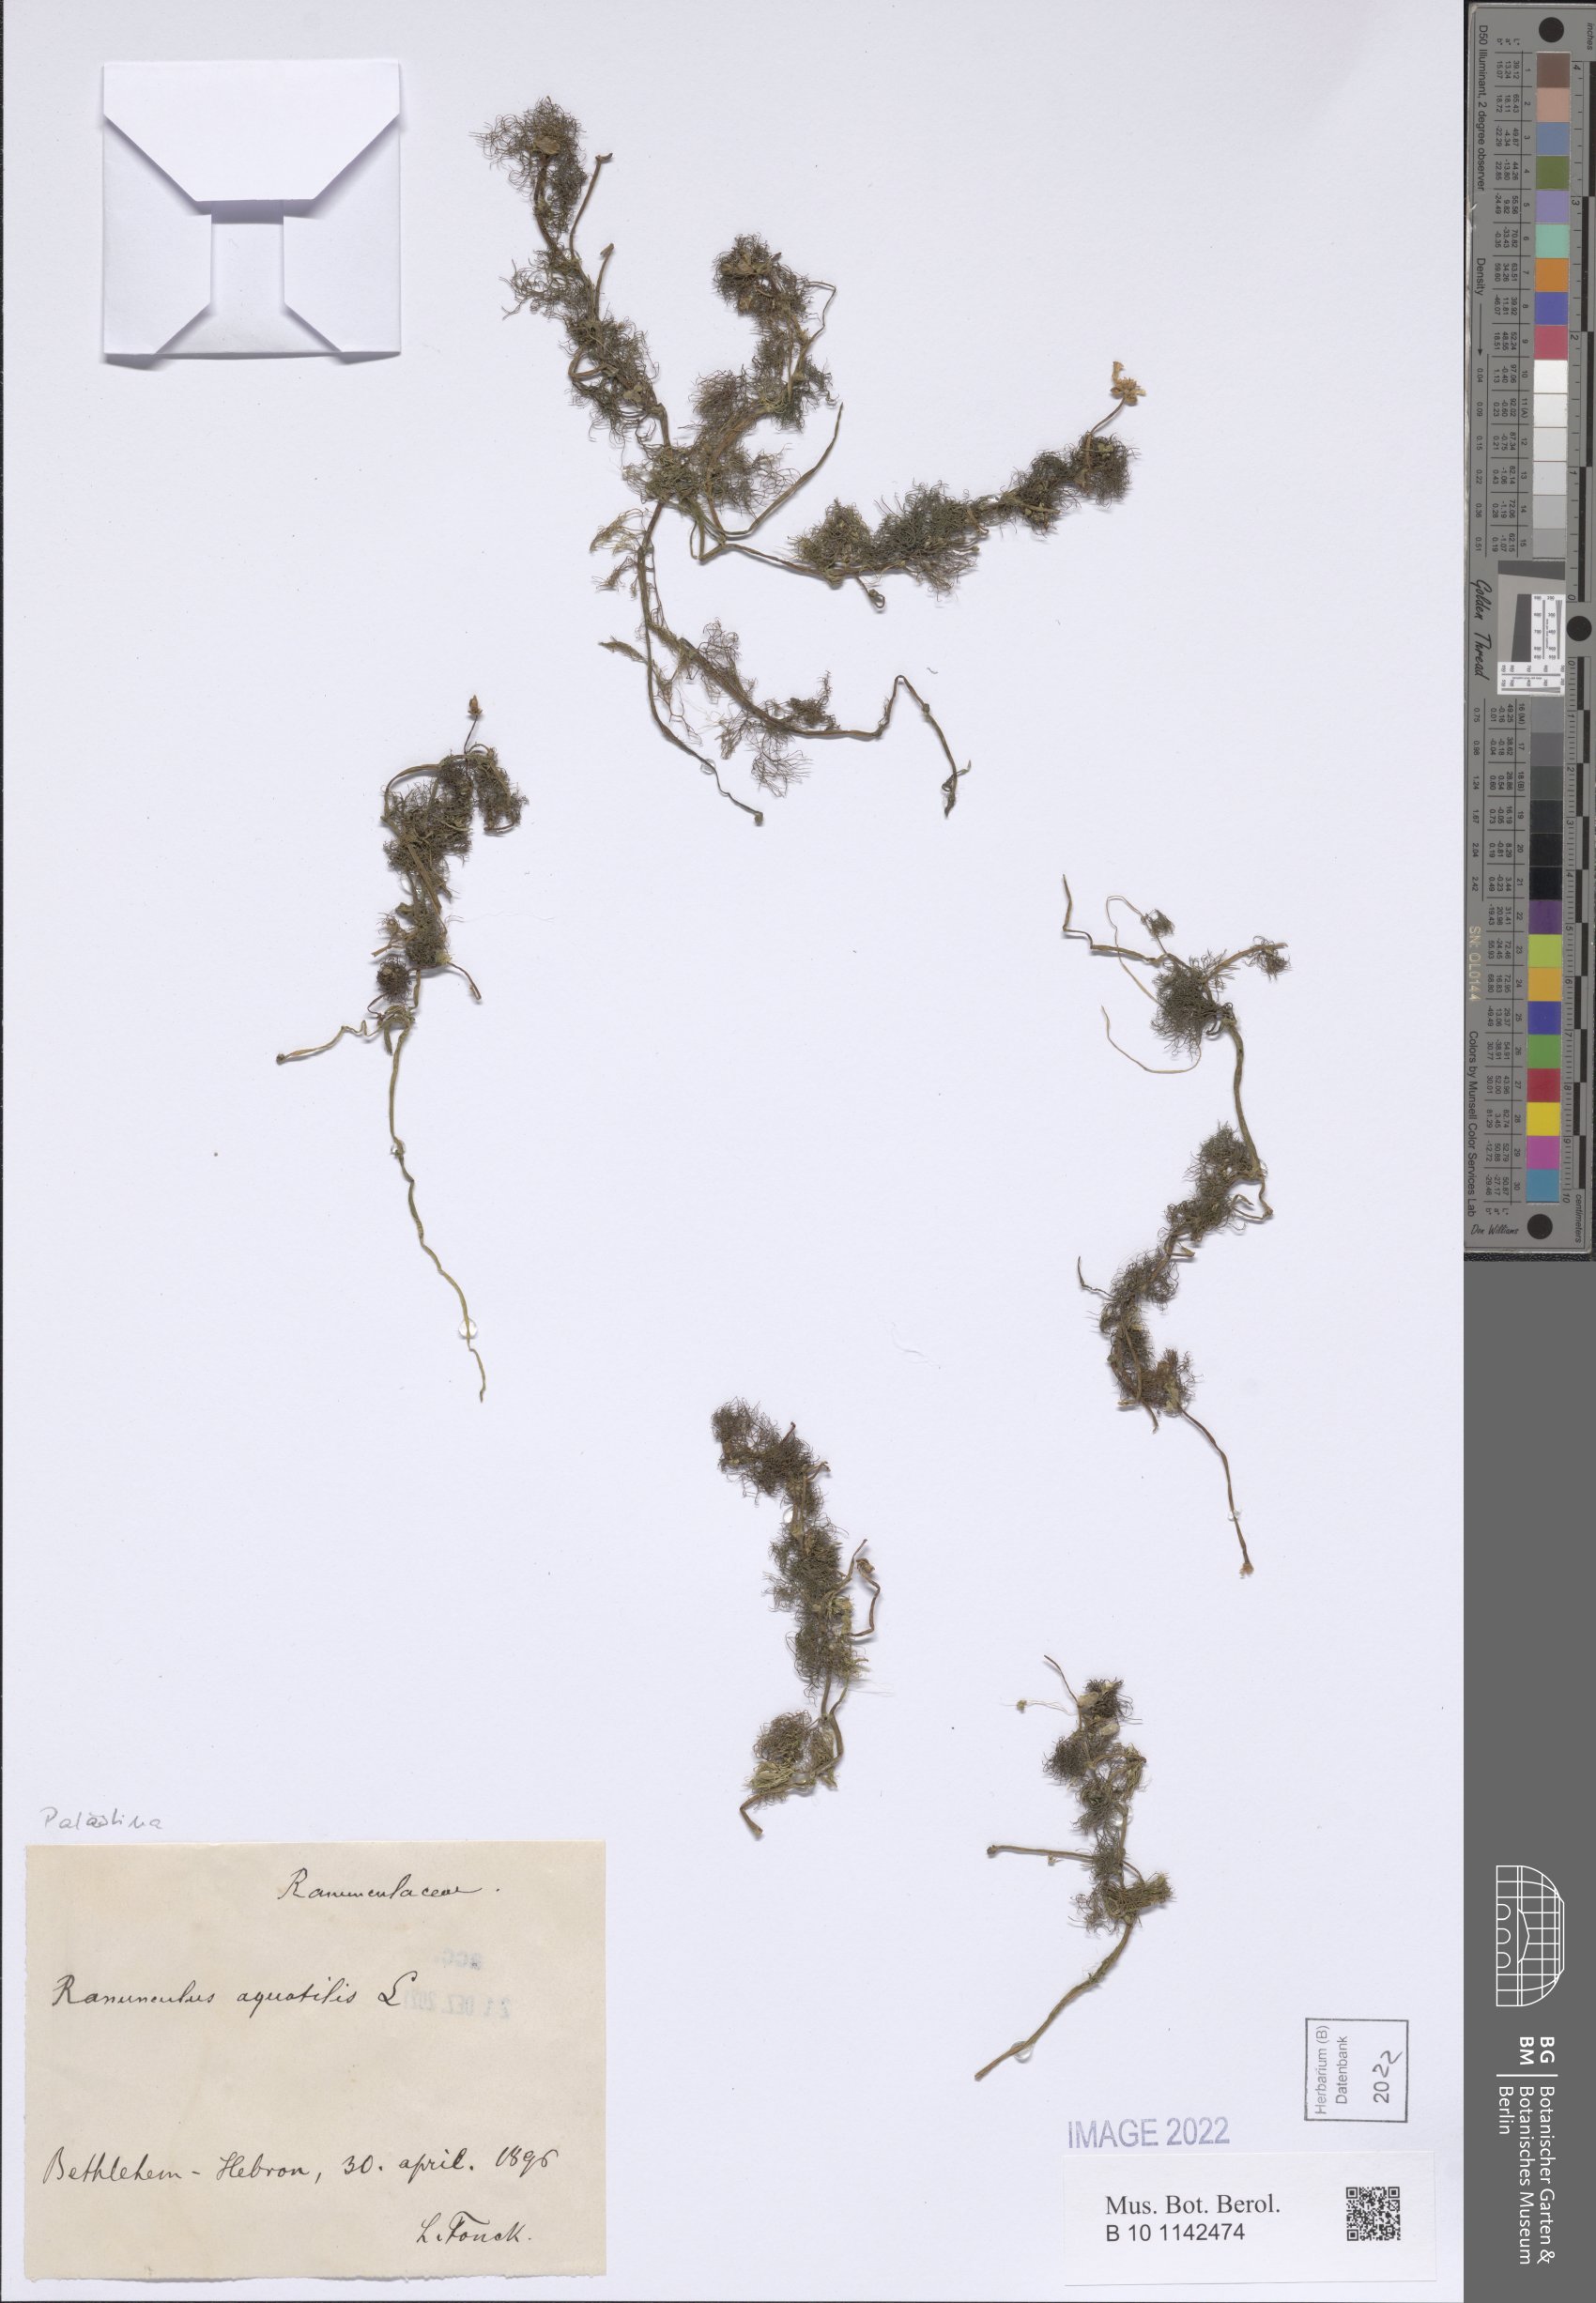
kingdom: Plantae
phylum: Tracheophyta
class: Magnoliopsida
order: Ranunculales
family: Ranunculaceae
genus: Ranunculus
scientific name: Ranunculus aquatilis
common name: Common water-crowfoot
